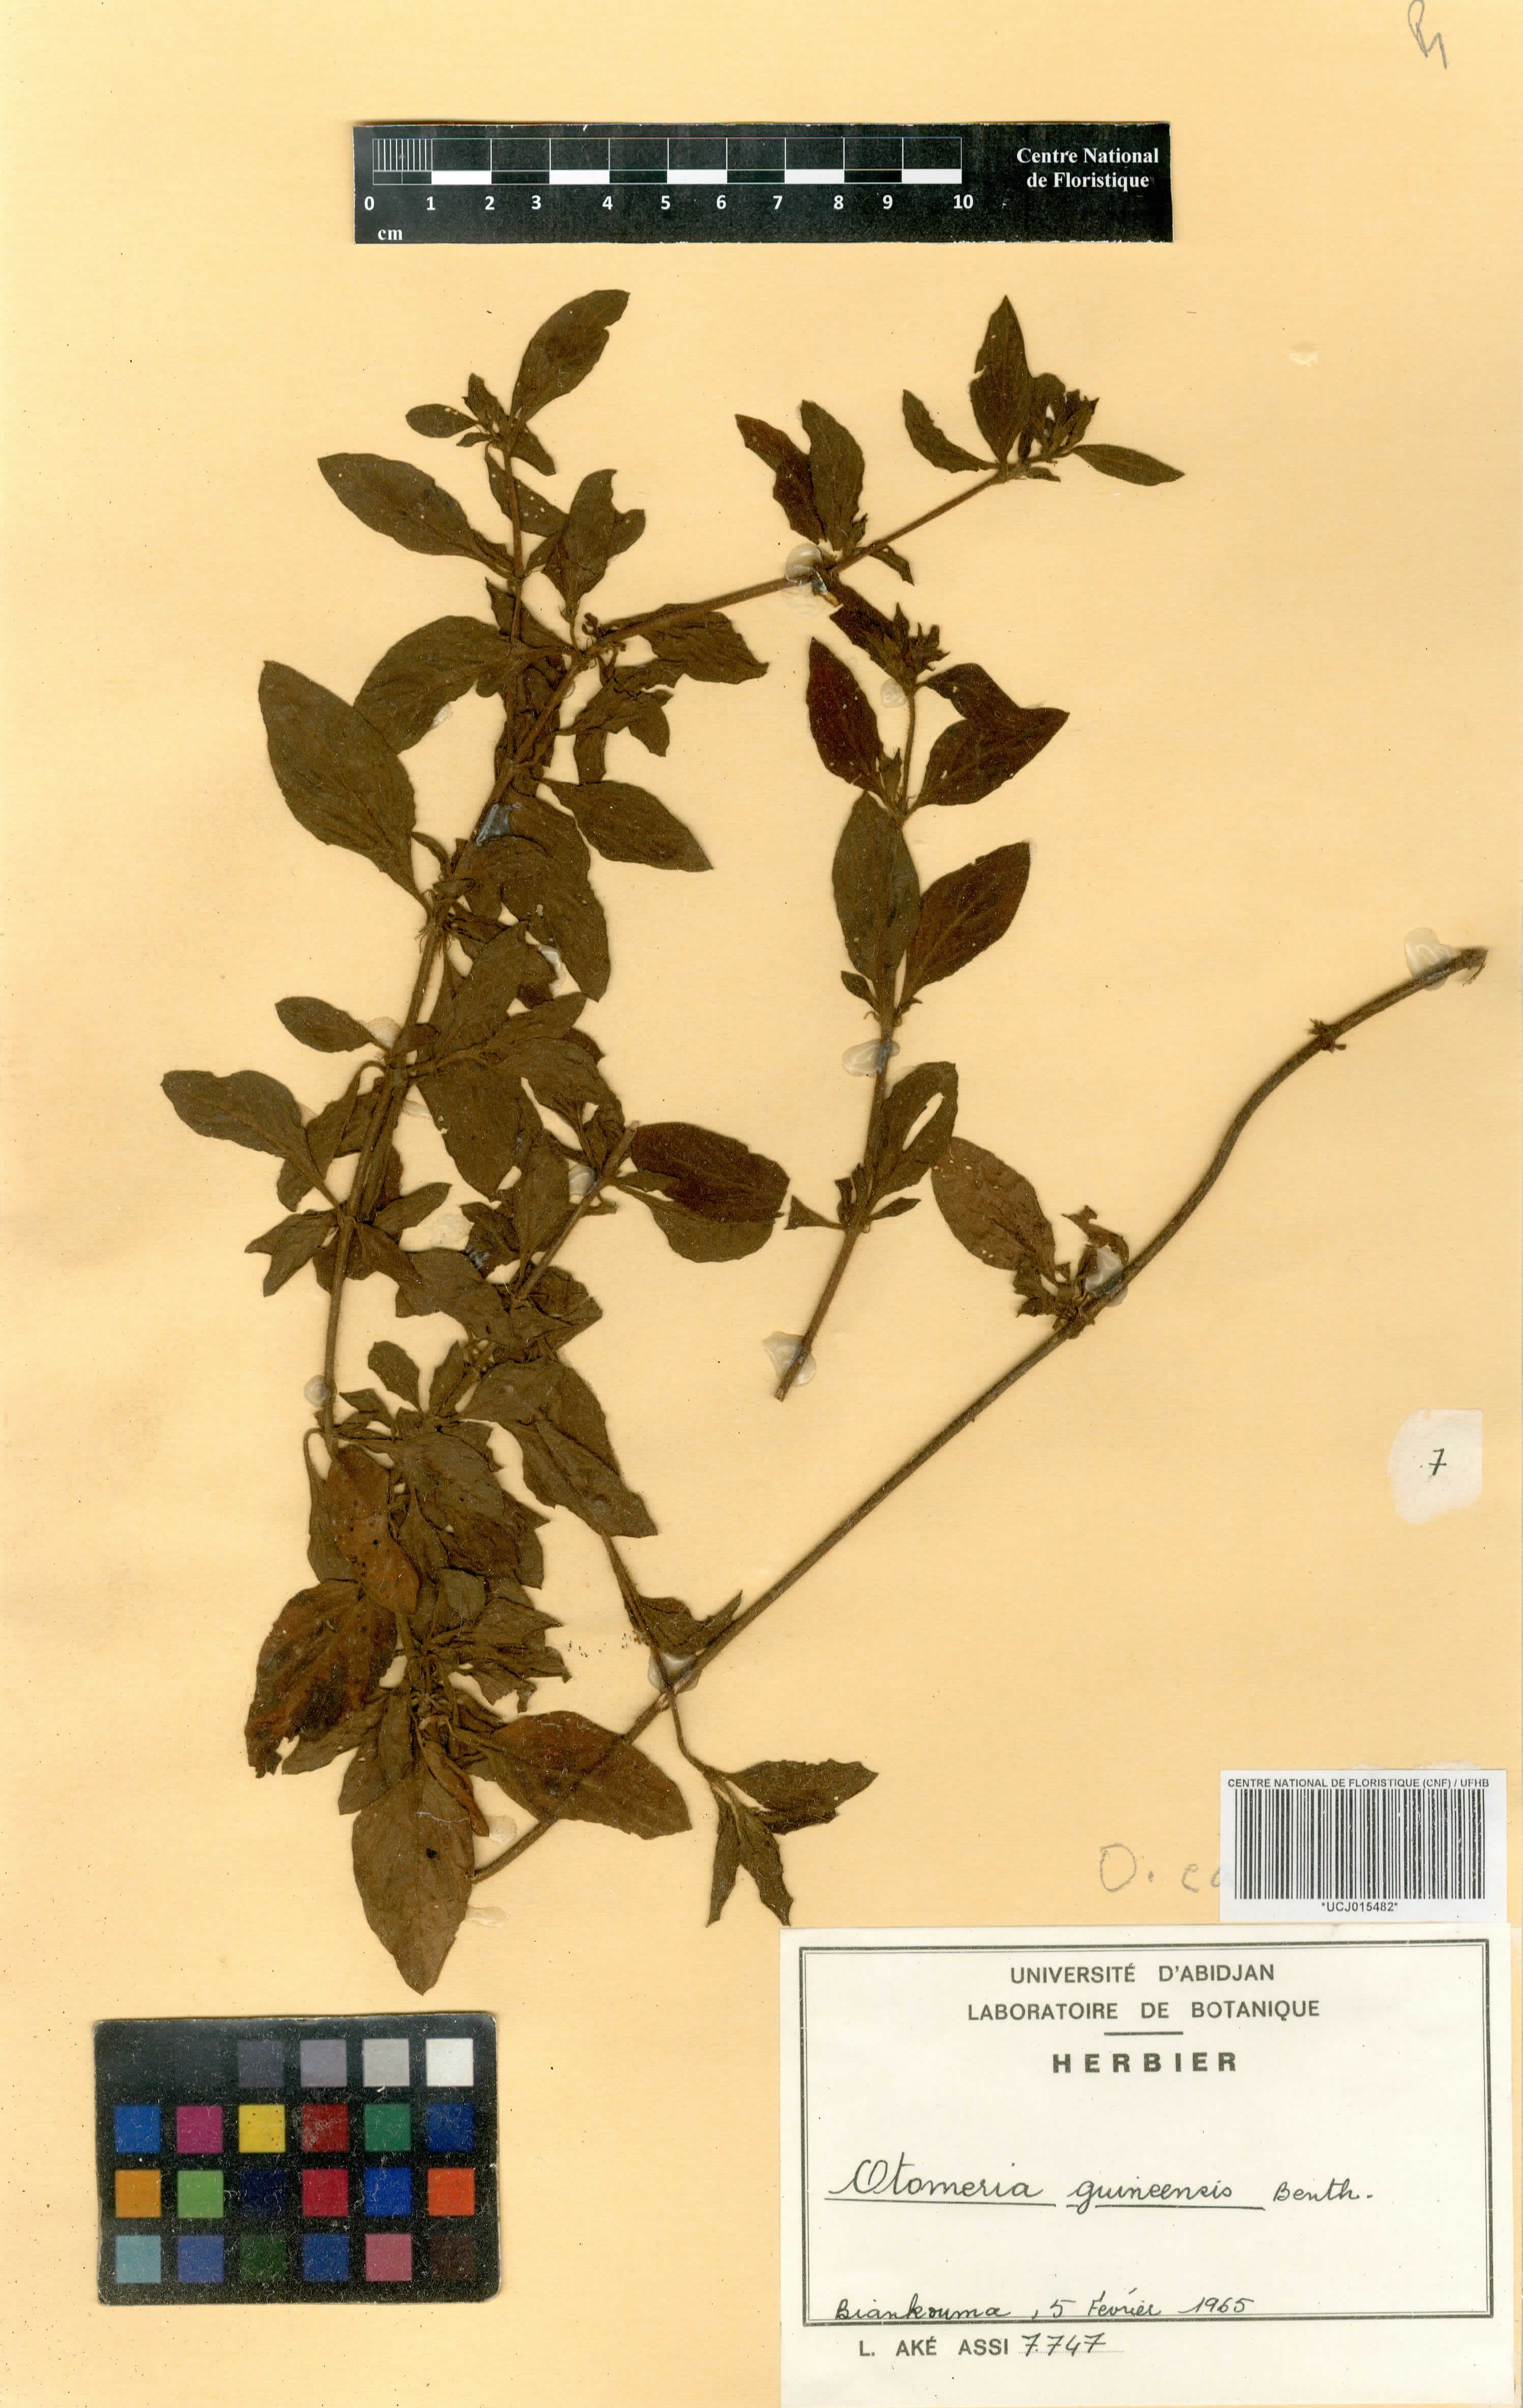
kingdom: Plantae
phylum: Tracheophyta
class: Magnoliopsida
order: Gentianales
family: Rubiaceae
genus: Otomeria
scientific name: Otomeria guineensis
